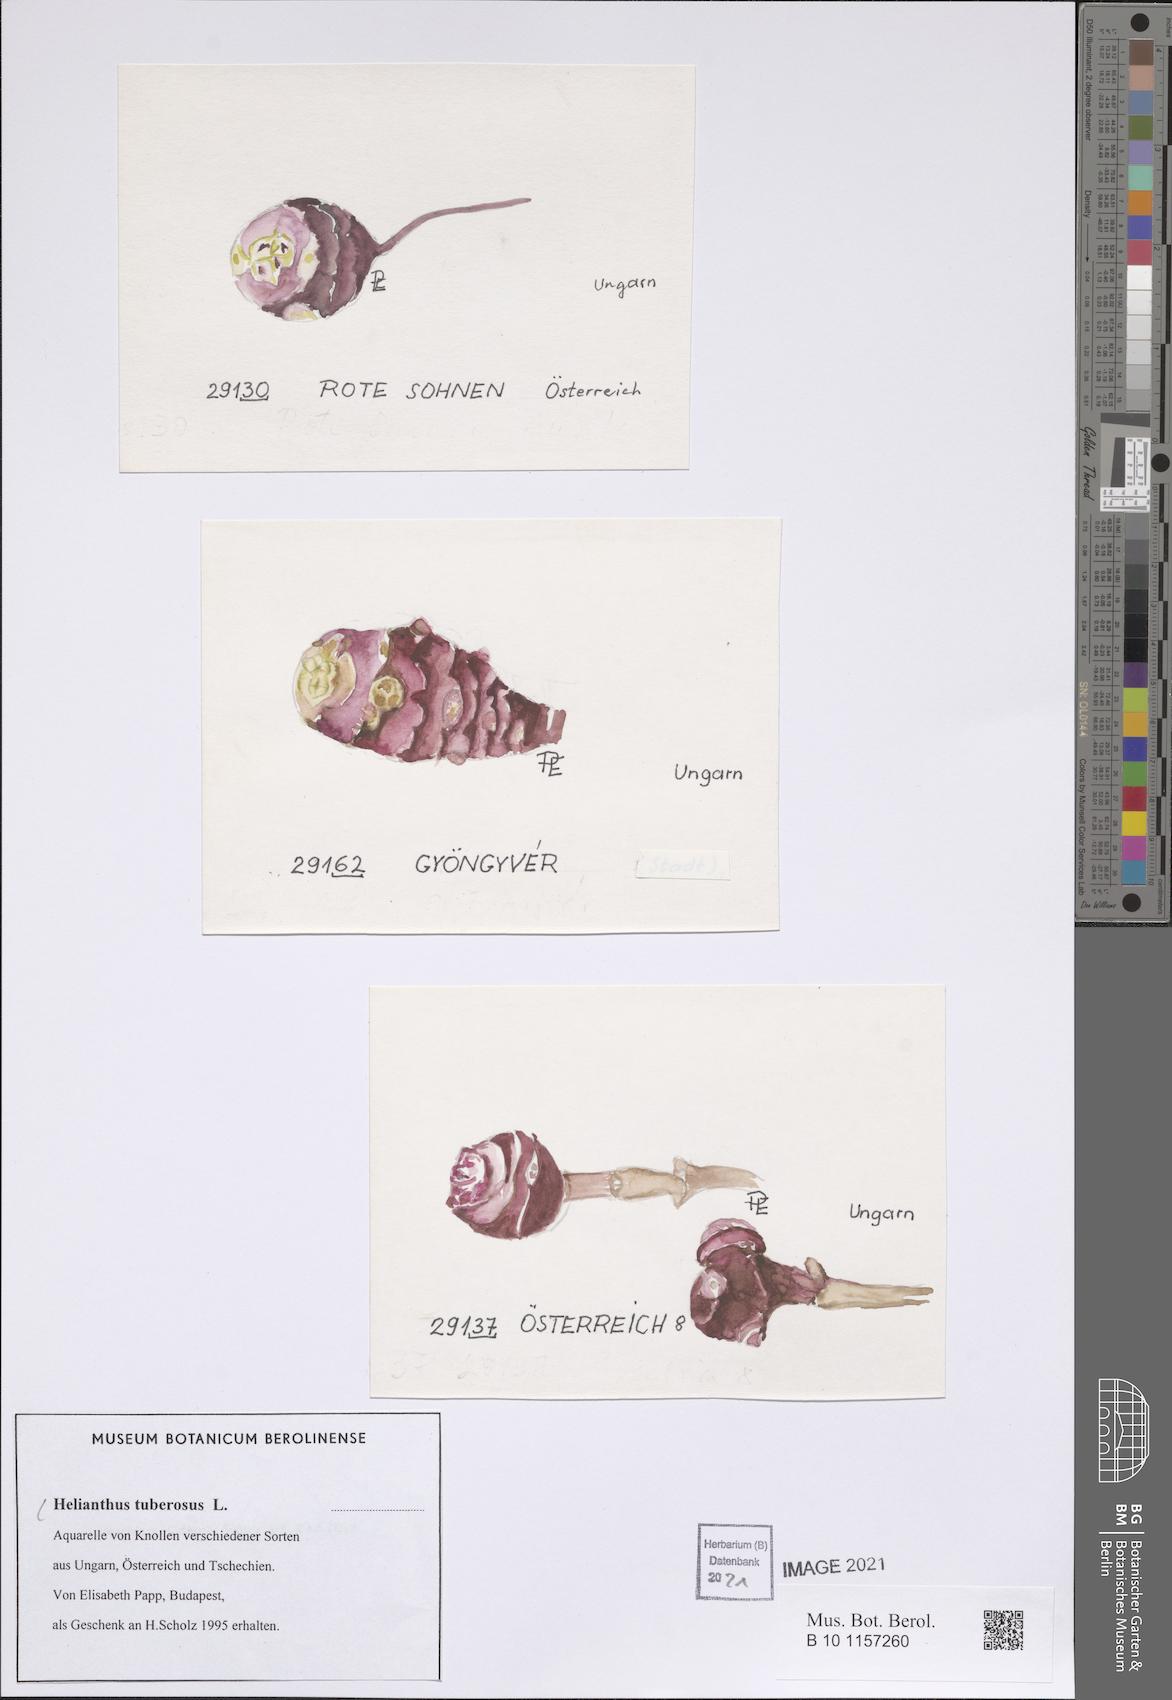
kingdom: Plantae
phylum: Tracheophyta
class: Magnoliopsida
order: Asterales
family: Asteraceae
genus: Helianthus
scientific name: Helianthus tuberosus
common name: Jerusalem artichoke
